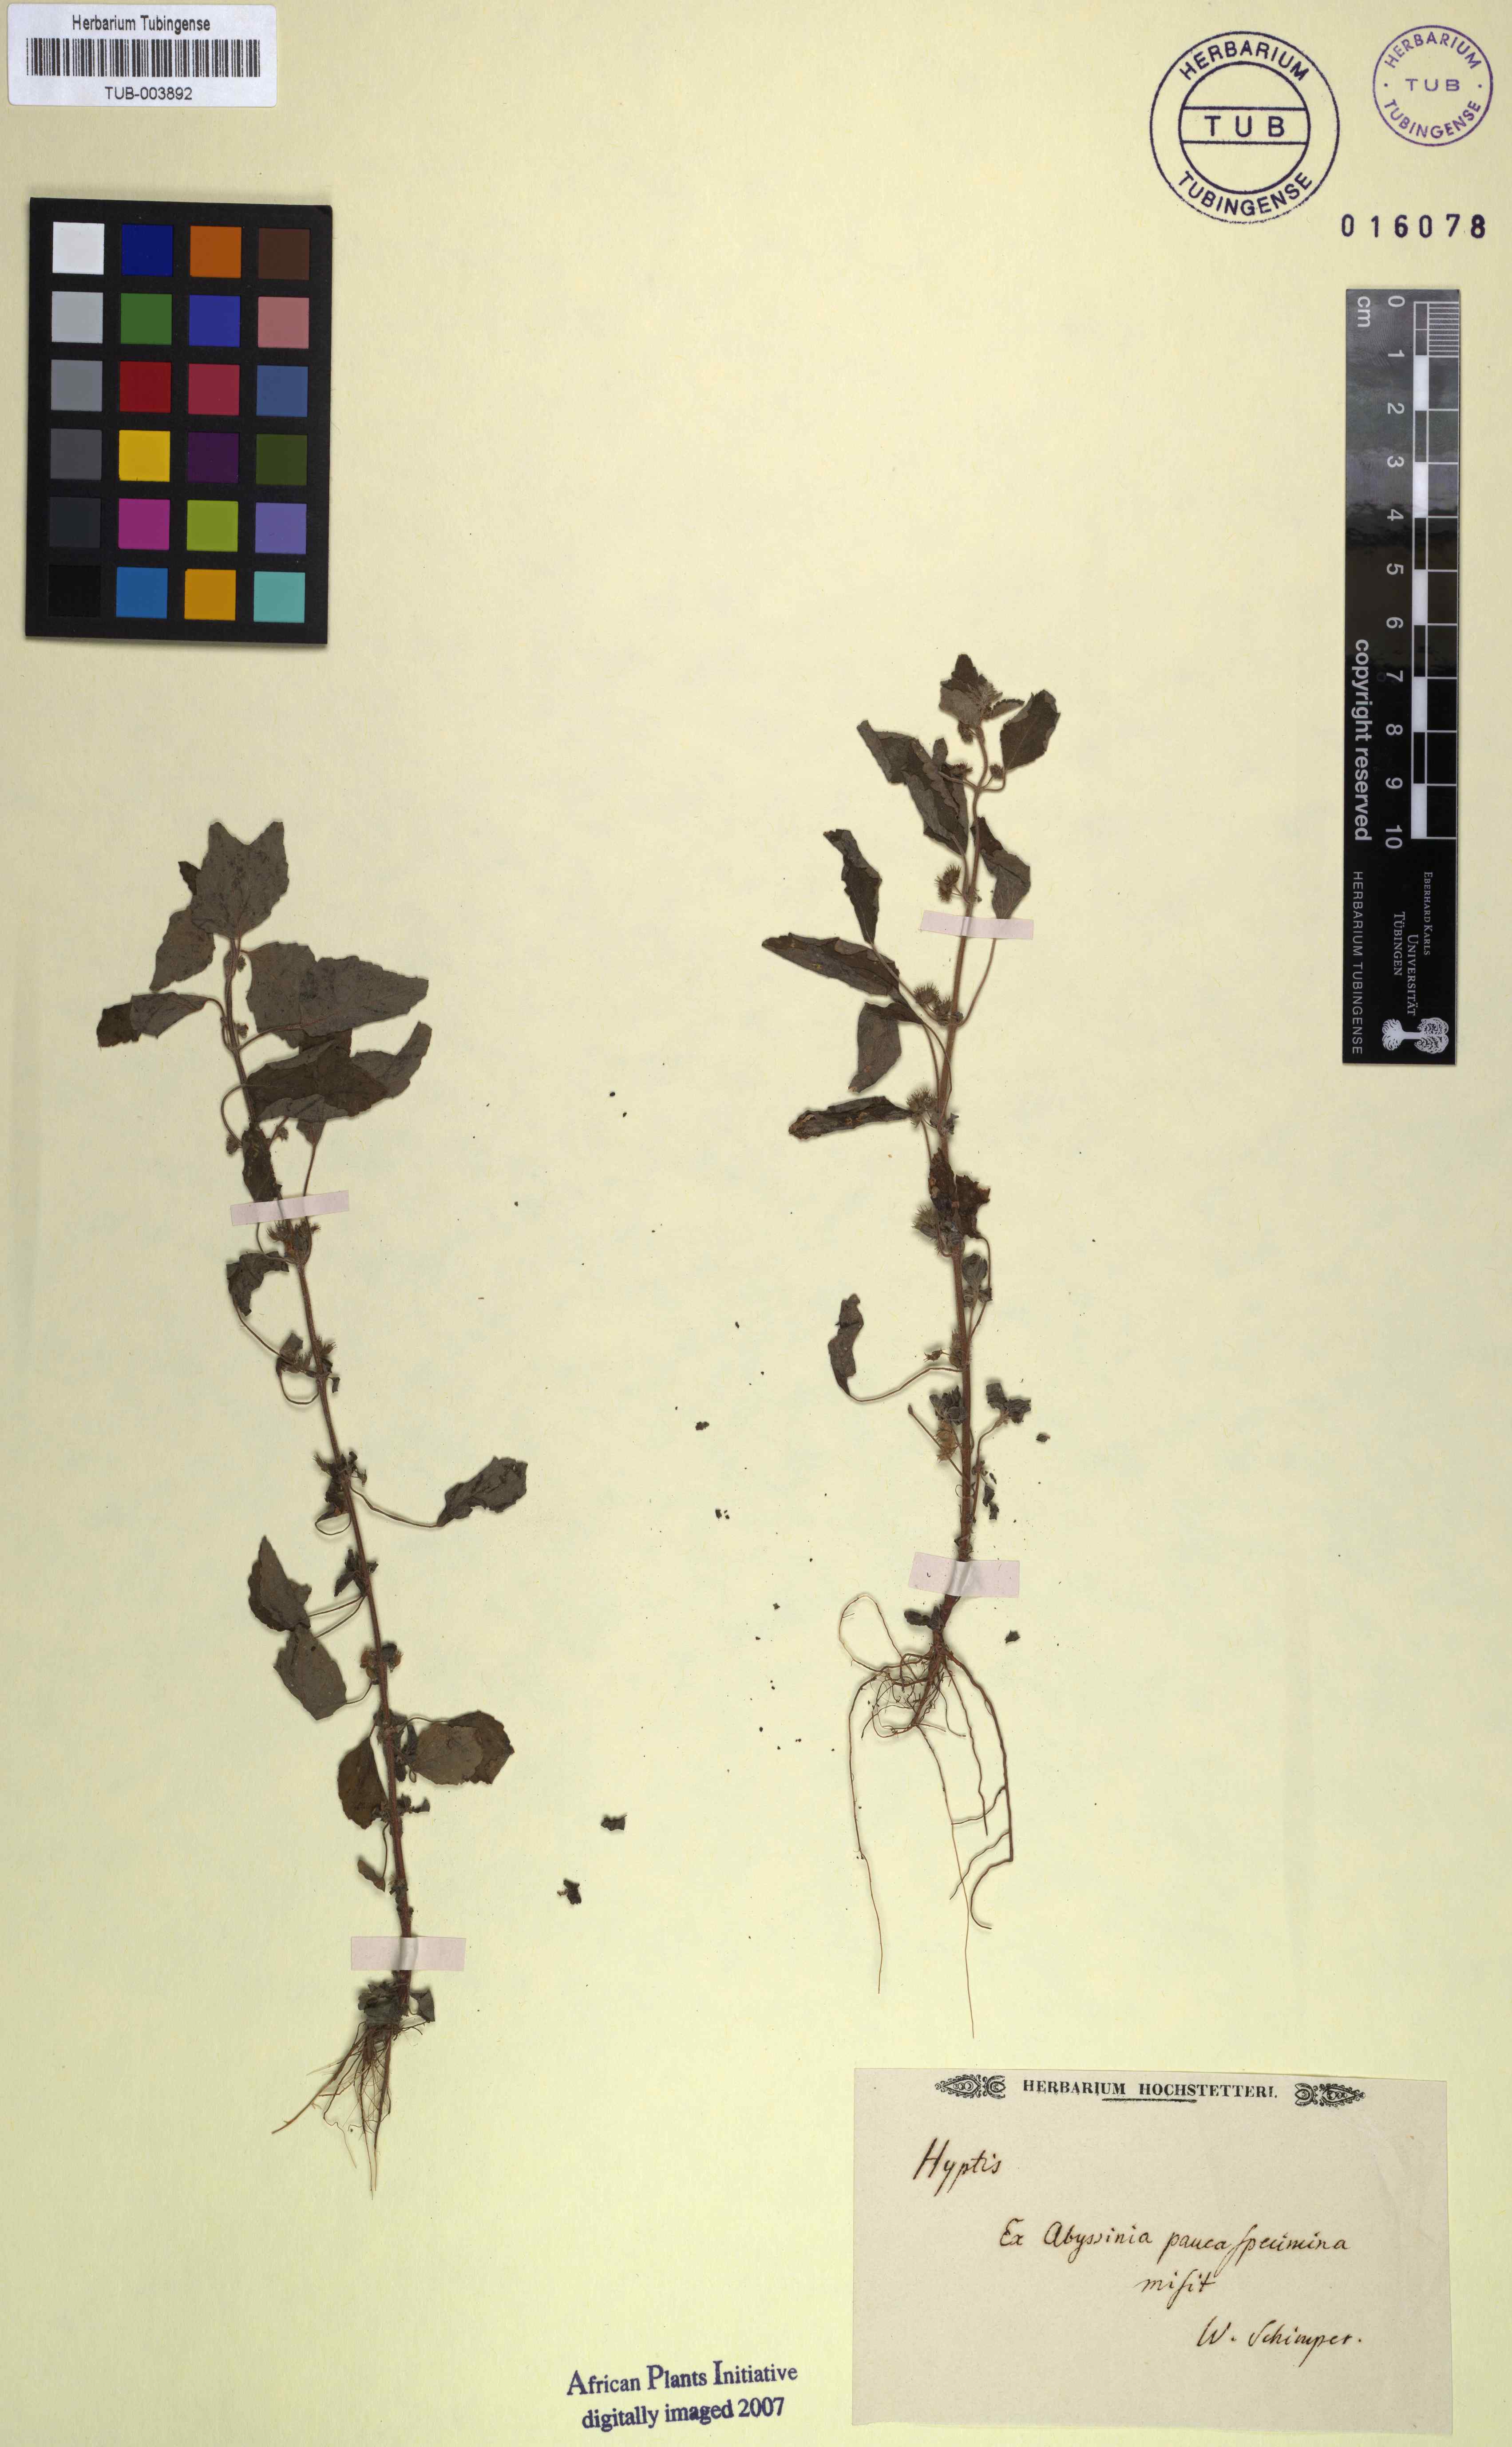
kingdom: Plantae
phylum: Tracheophyta
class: Magnoliopsida
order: Lamiales
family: Lamiaceae
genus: Hyptis
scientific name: Hyptis
